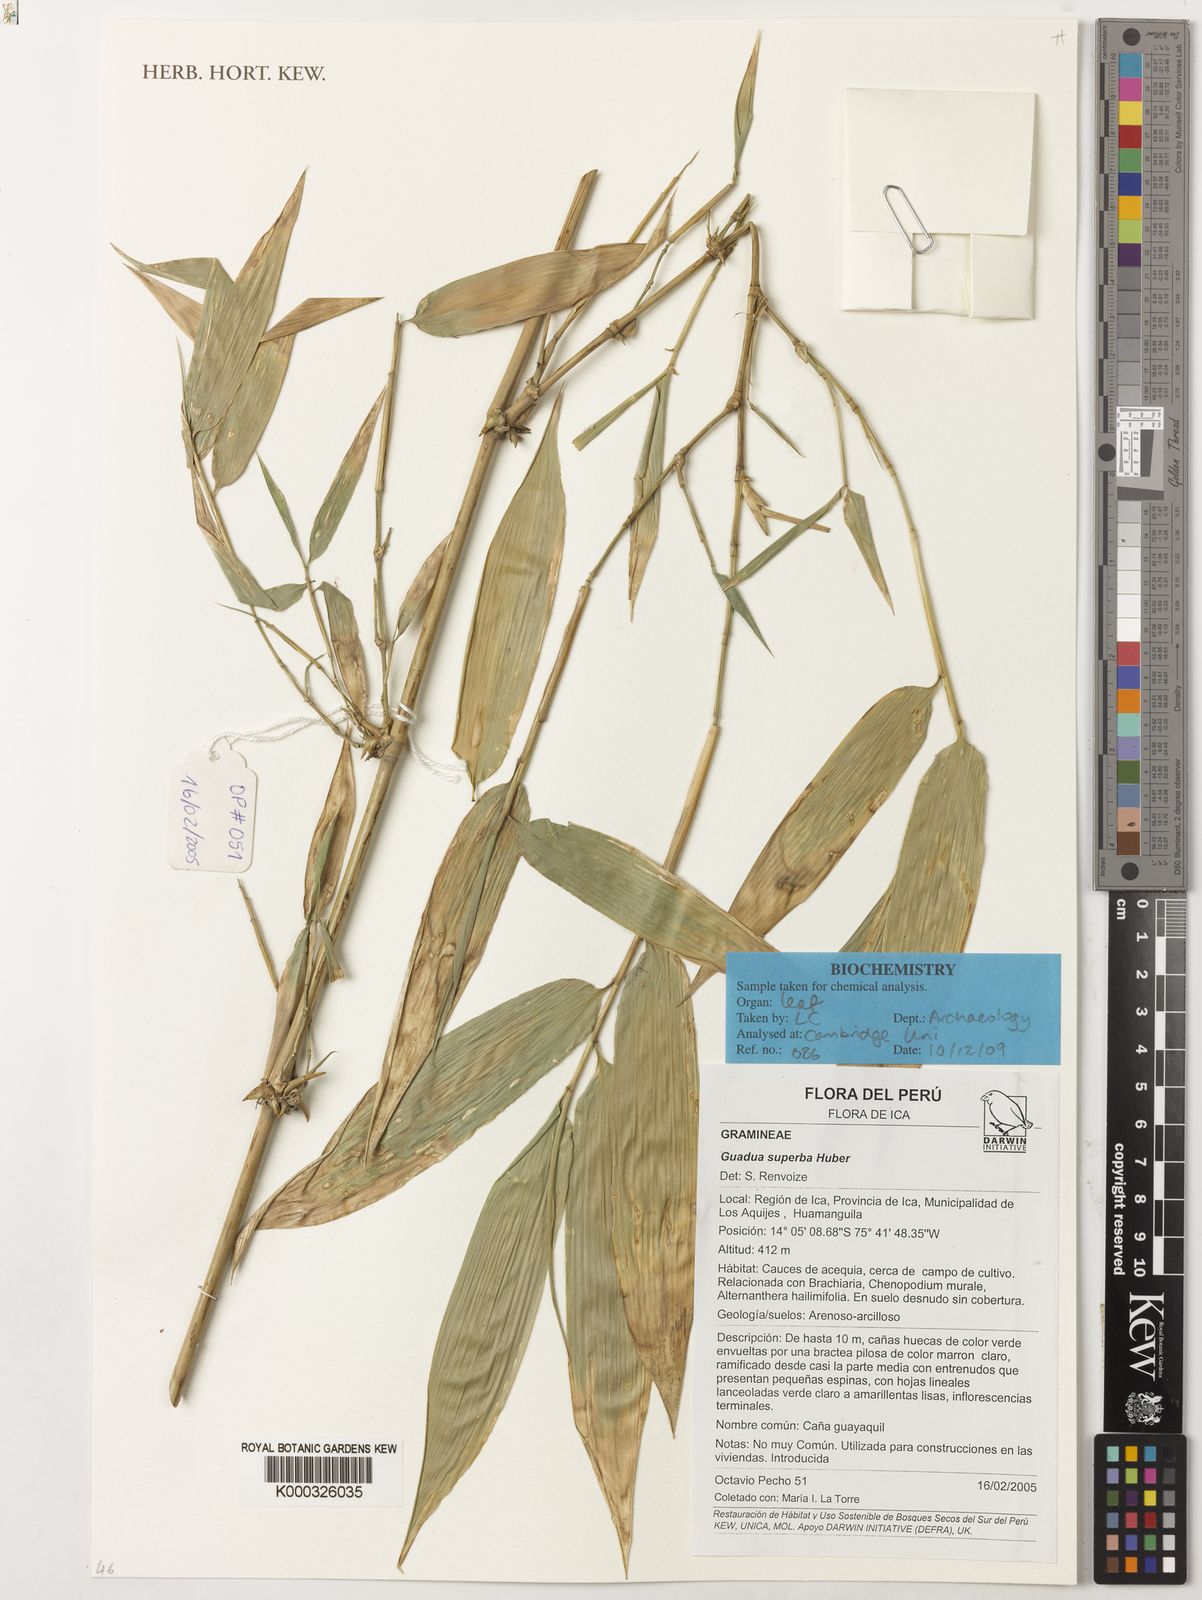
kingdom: Plantae
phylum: Tracheophyta
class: Liliopsida
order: Poales
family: Poaceae
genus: Guadua
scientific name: Guadua angustifolia
